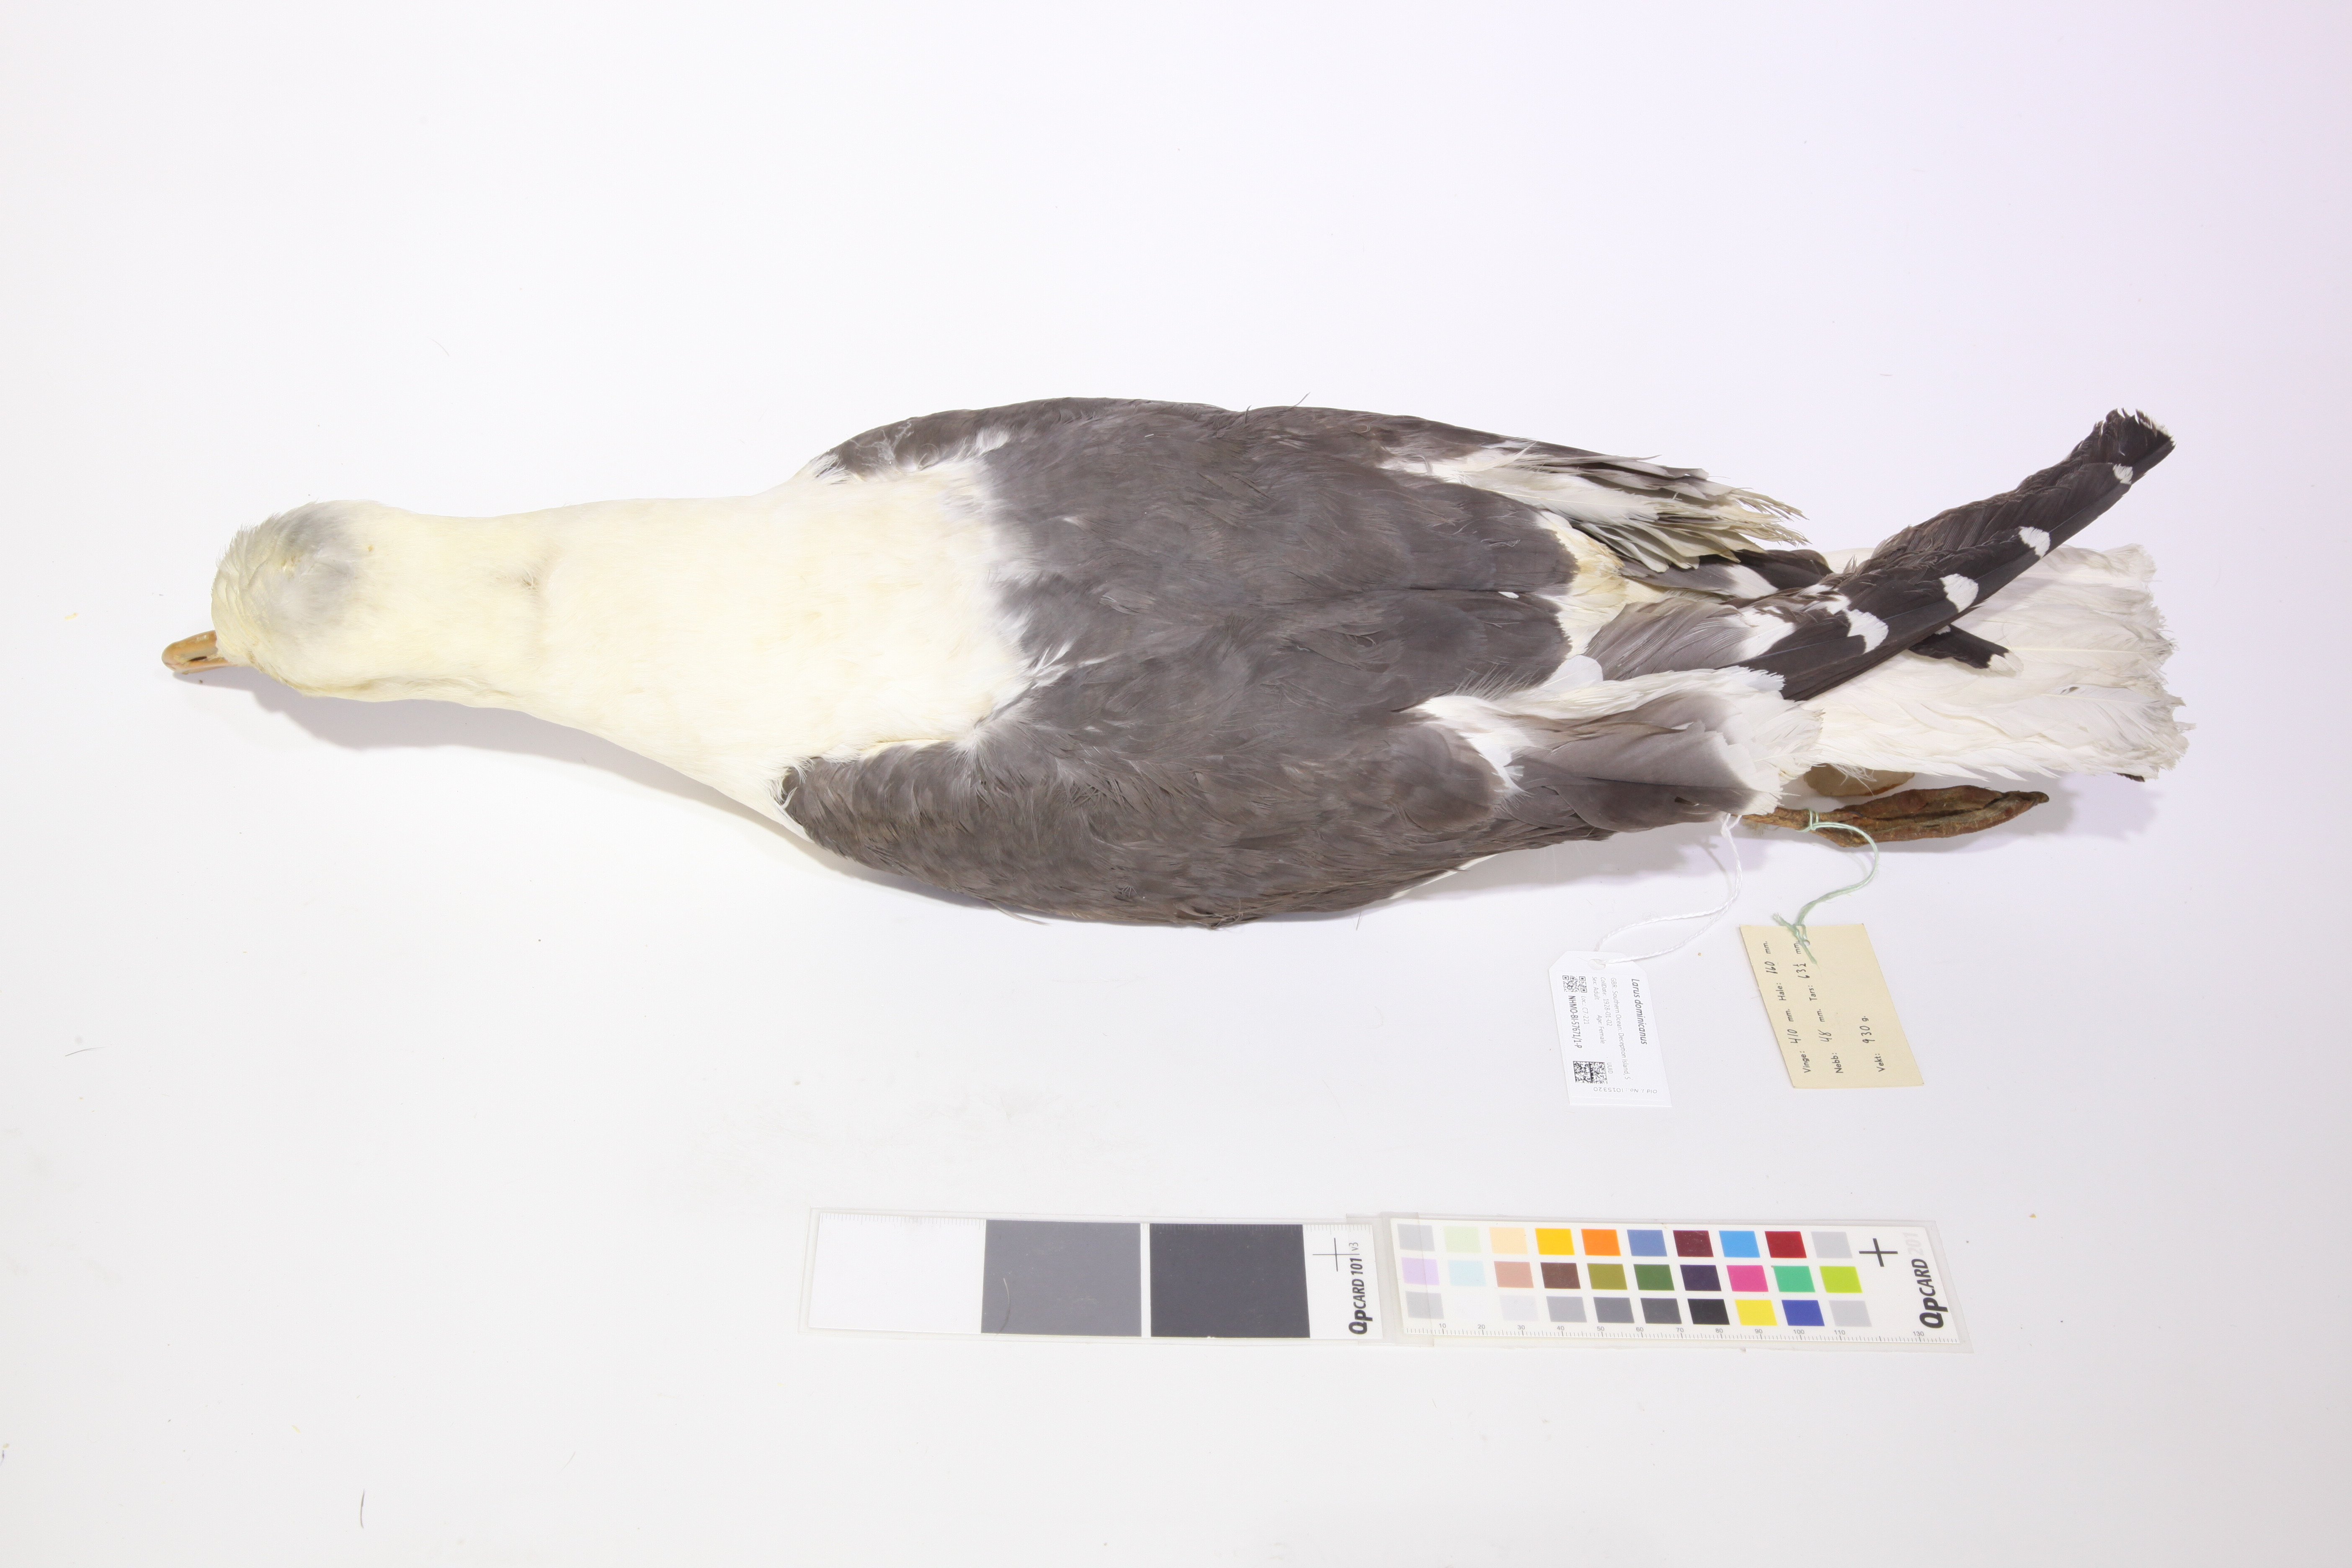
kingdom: Animalia
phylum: Chordata
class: Aves
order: Charadriiformes
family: Laridae
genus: Larus
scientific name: Larus dominicanus
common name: Kelp gull
